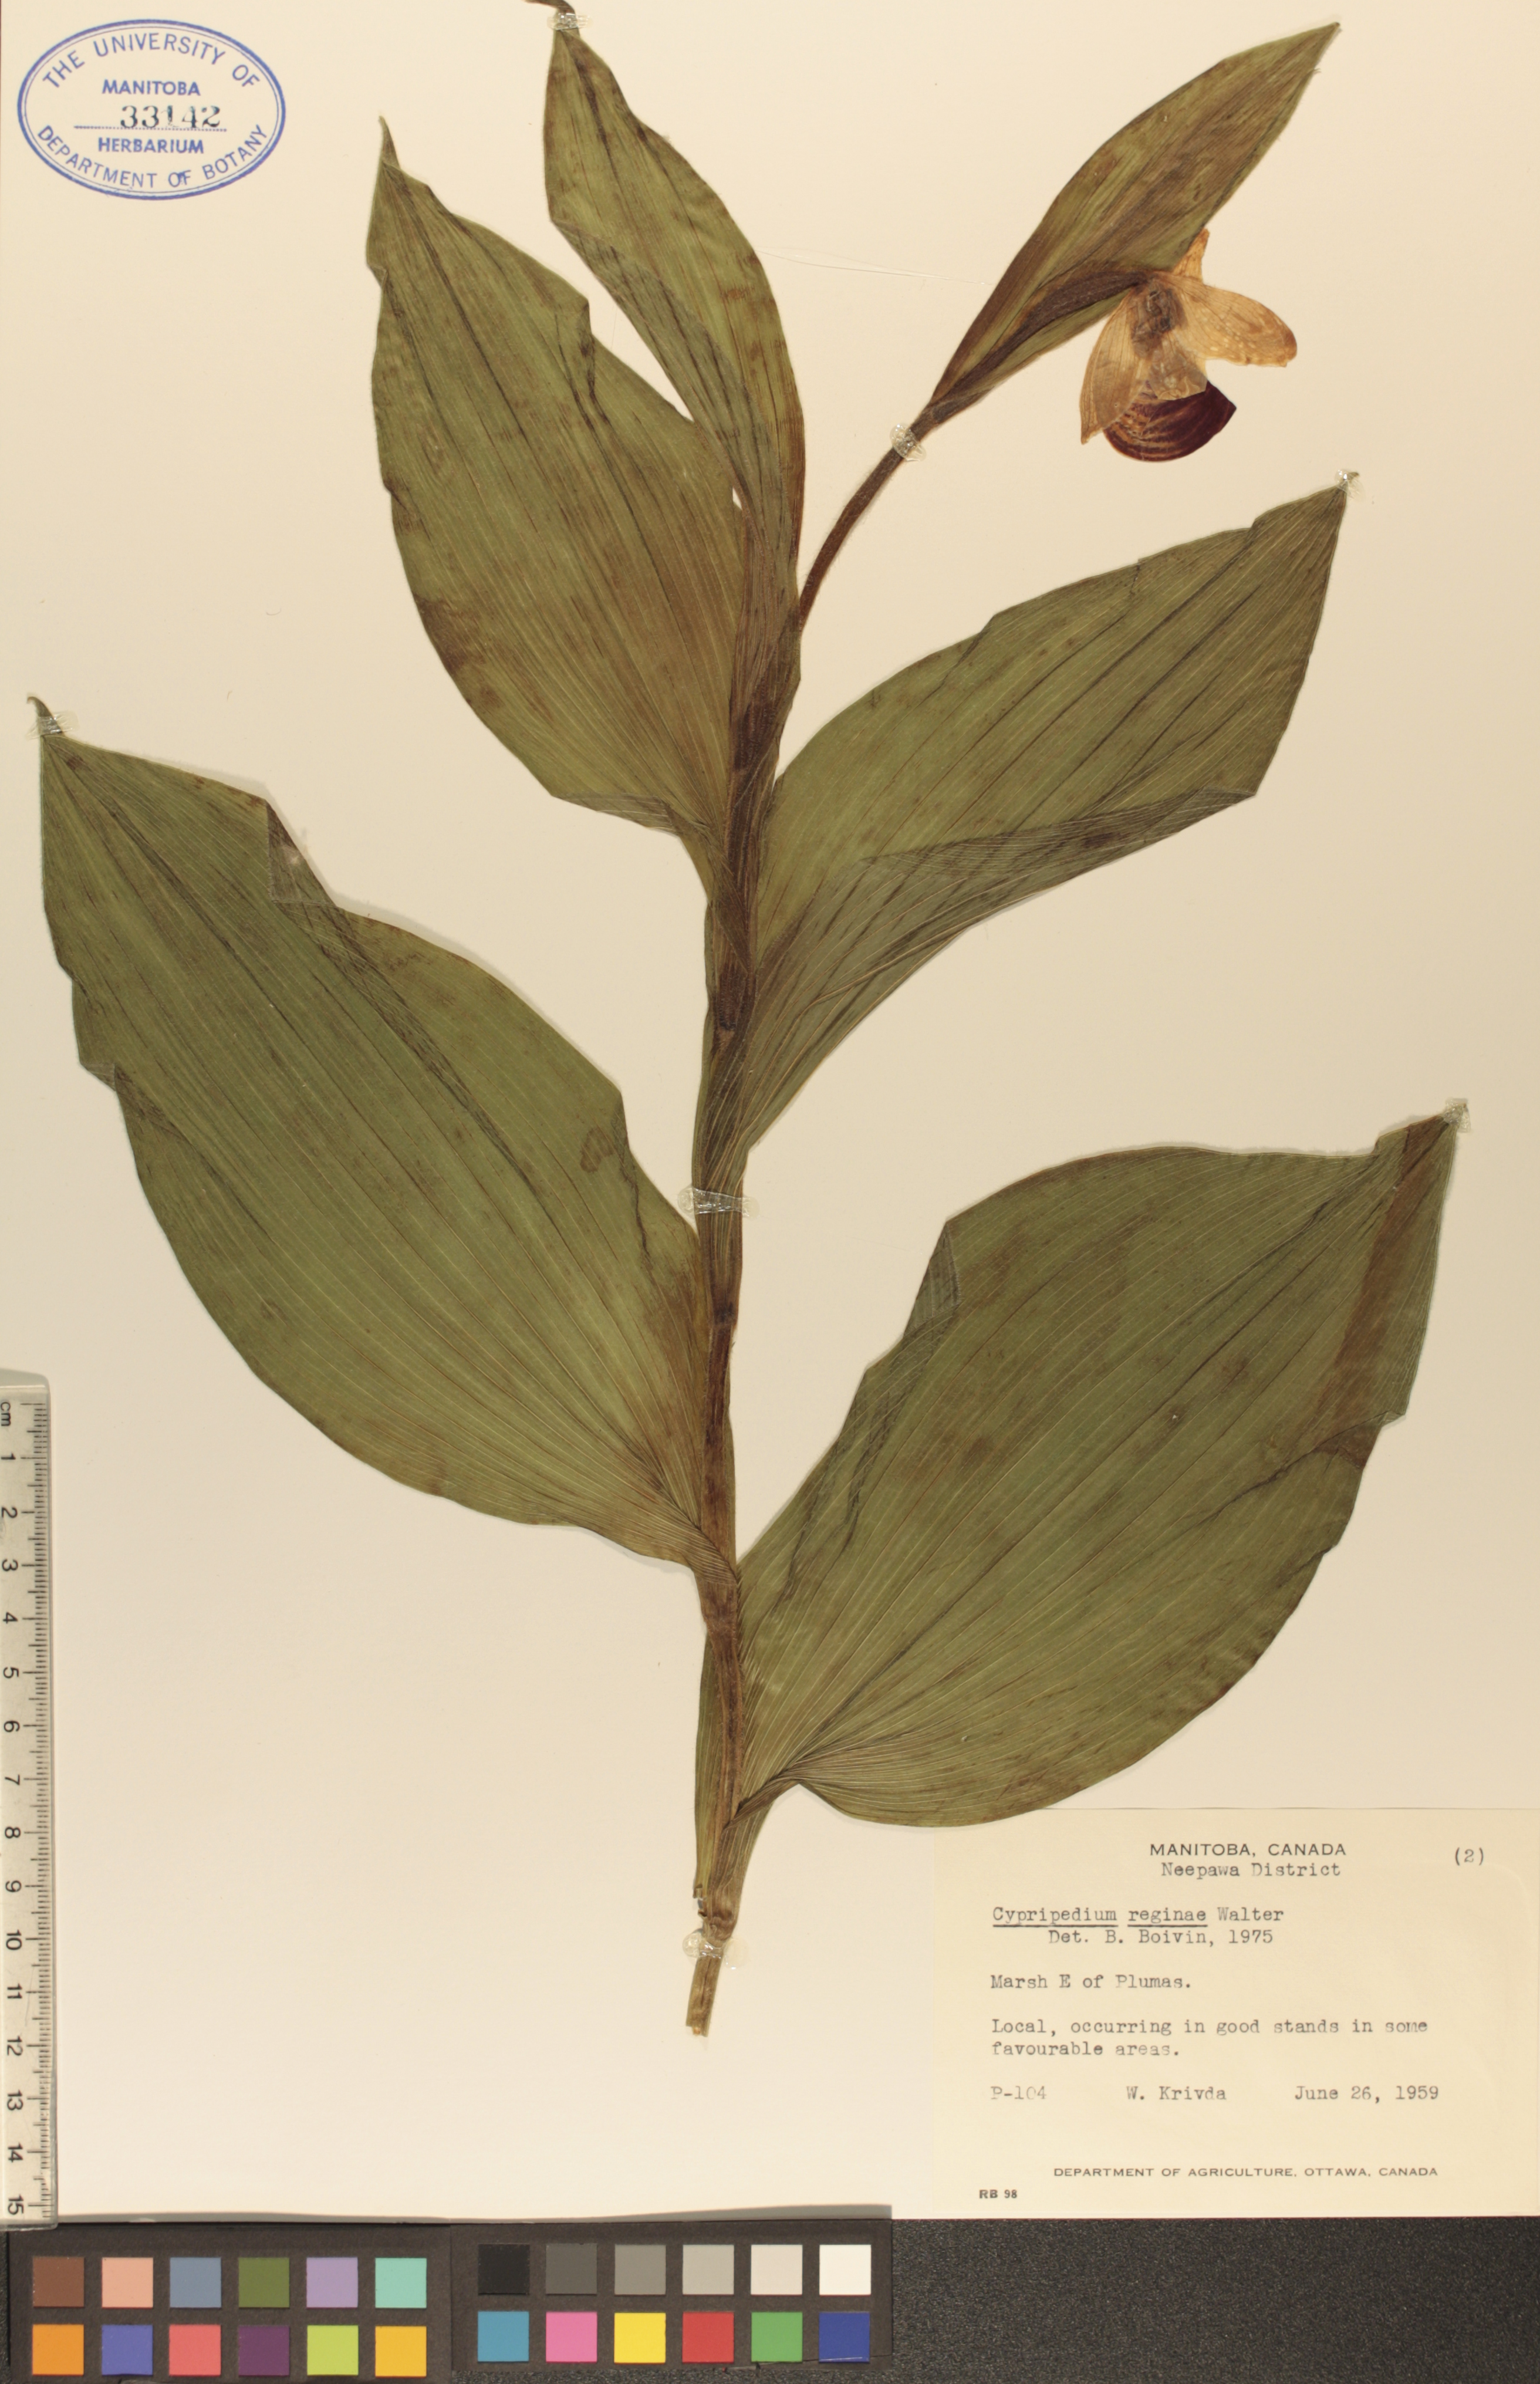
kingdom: Plantae
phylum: Tracheophyta
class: Liliopsida
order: Asparagales
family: Orchidaceae
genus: Cypripedium
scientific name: Cypripedium reginae
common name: Queen lady's-slipper
